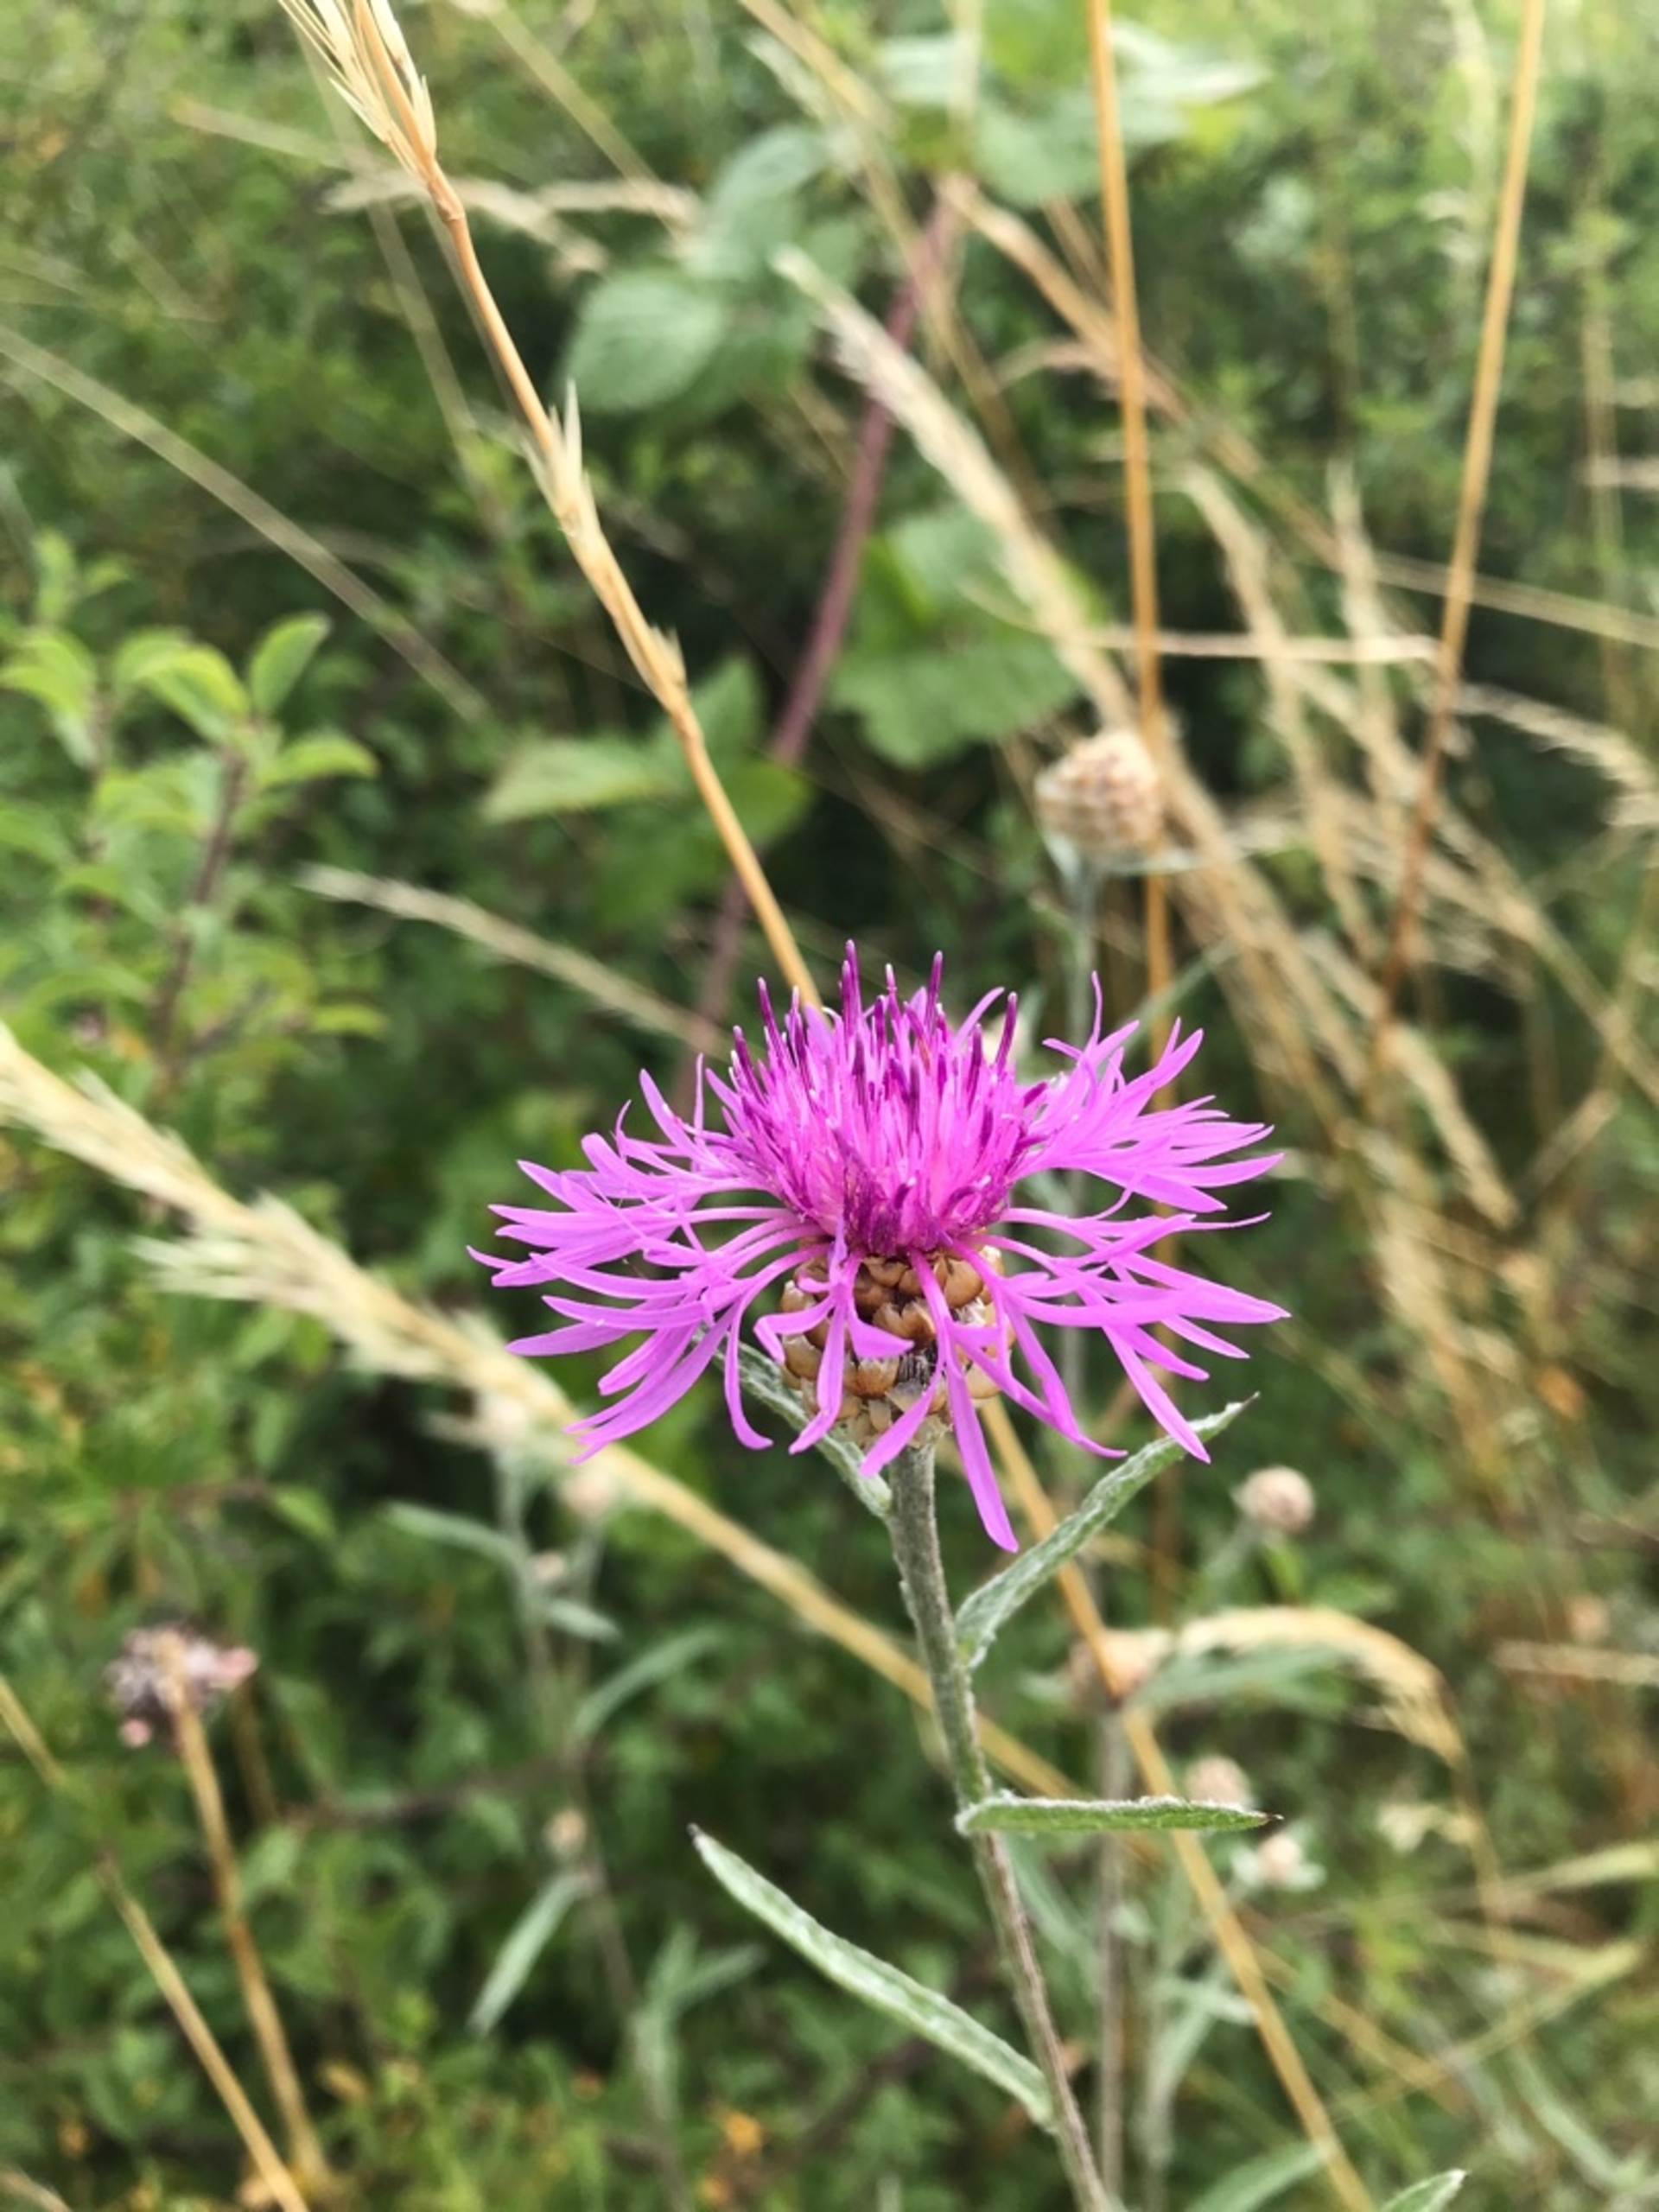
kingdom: Plantae
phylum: Tracheophyta
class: Magnoliopsida
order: Asterales
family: Asteraceae
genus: Centaurea
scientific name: Centaurea jacea
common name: Almindelig knopurt
